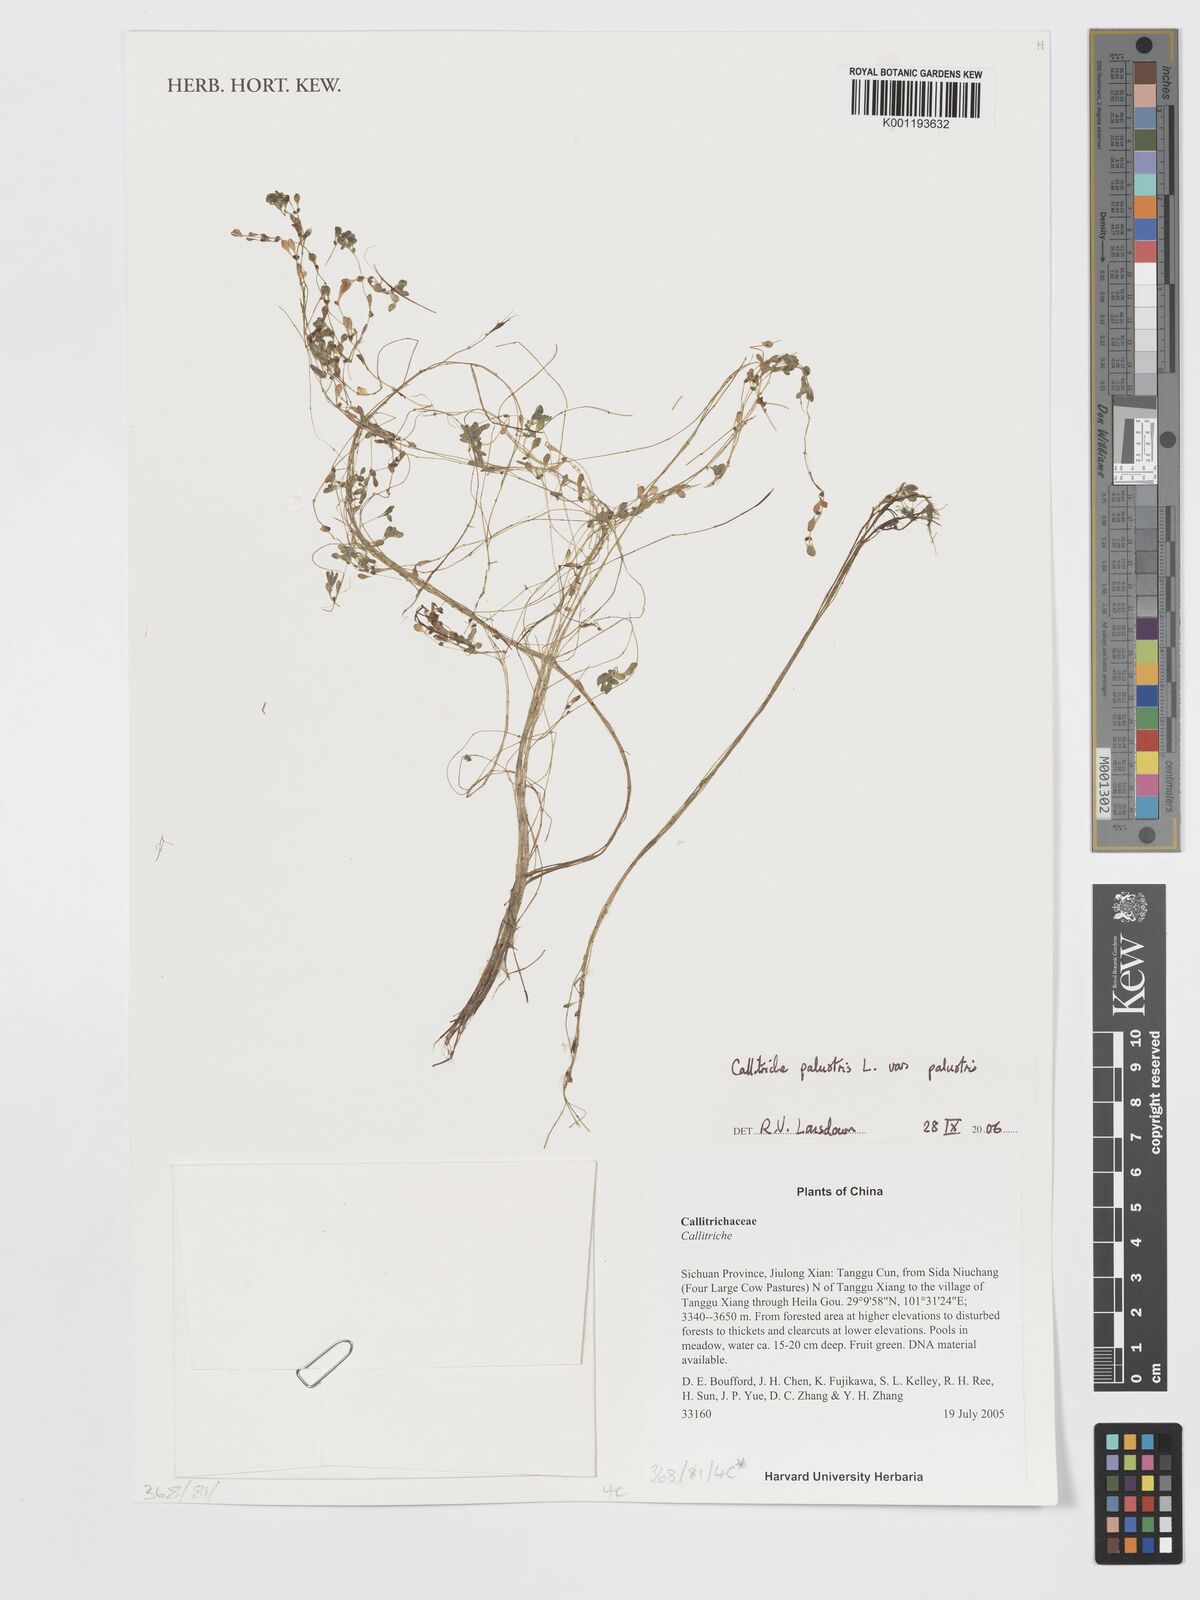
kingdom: Plantae
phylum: Tracheophyta
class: Magnoliopsida
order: Lamiales
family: Plantaginaceae
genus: Callitriche
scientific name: Callitriche palustris
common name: Spring water-starwort
